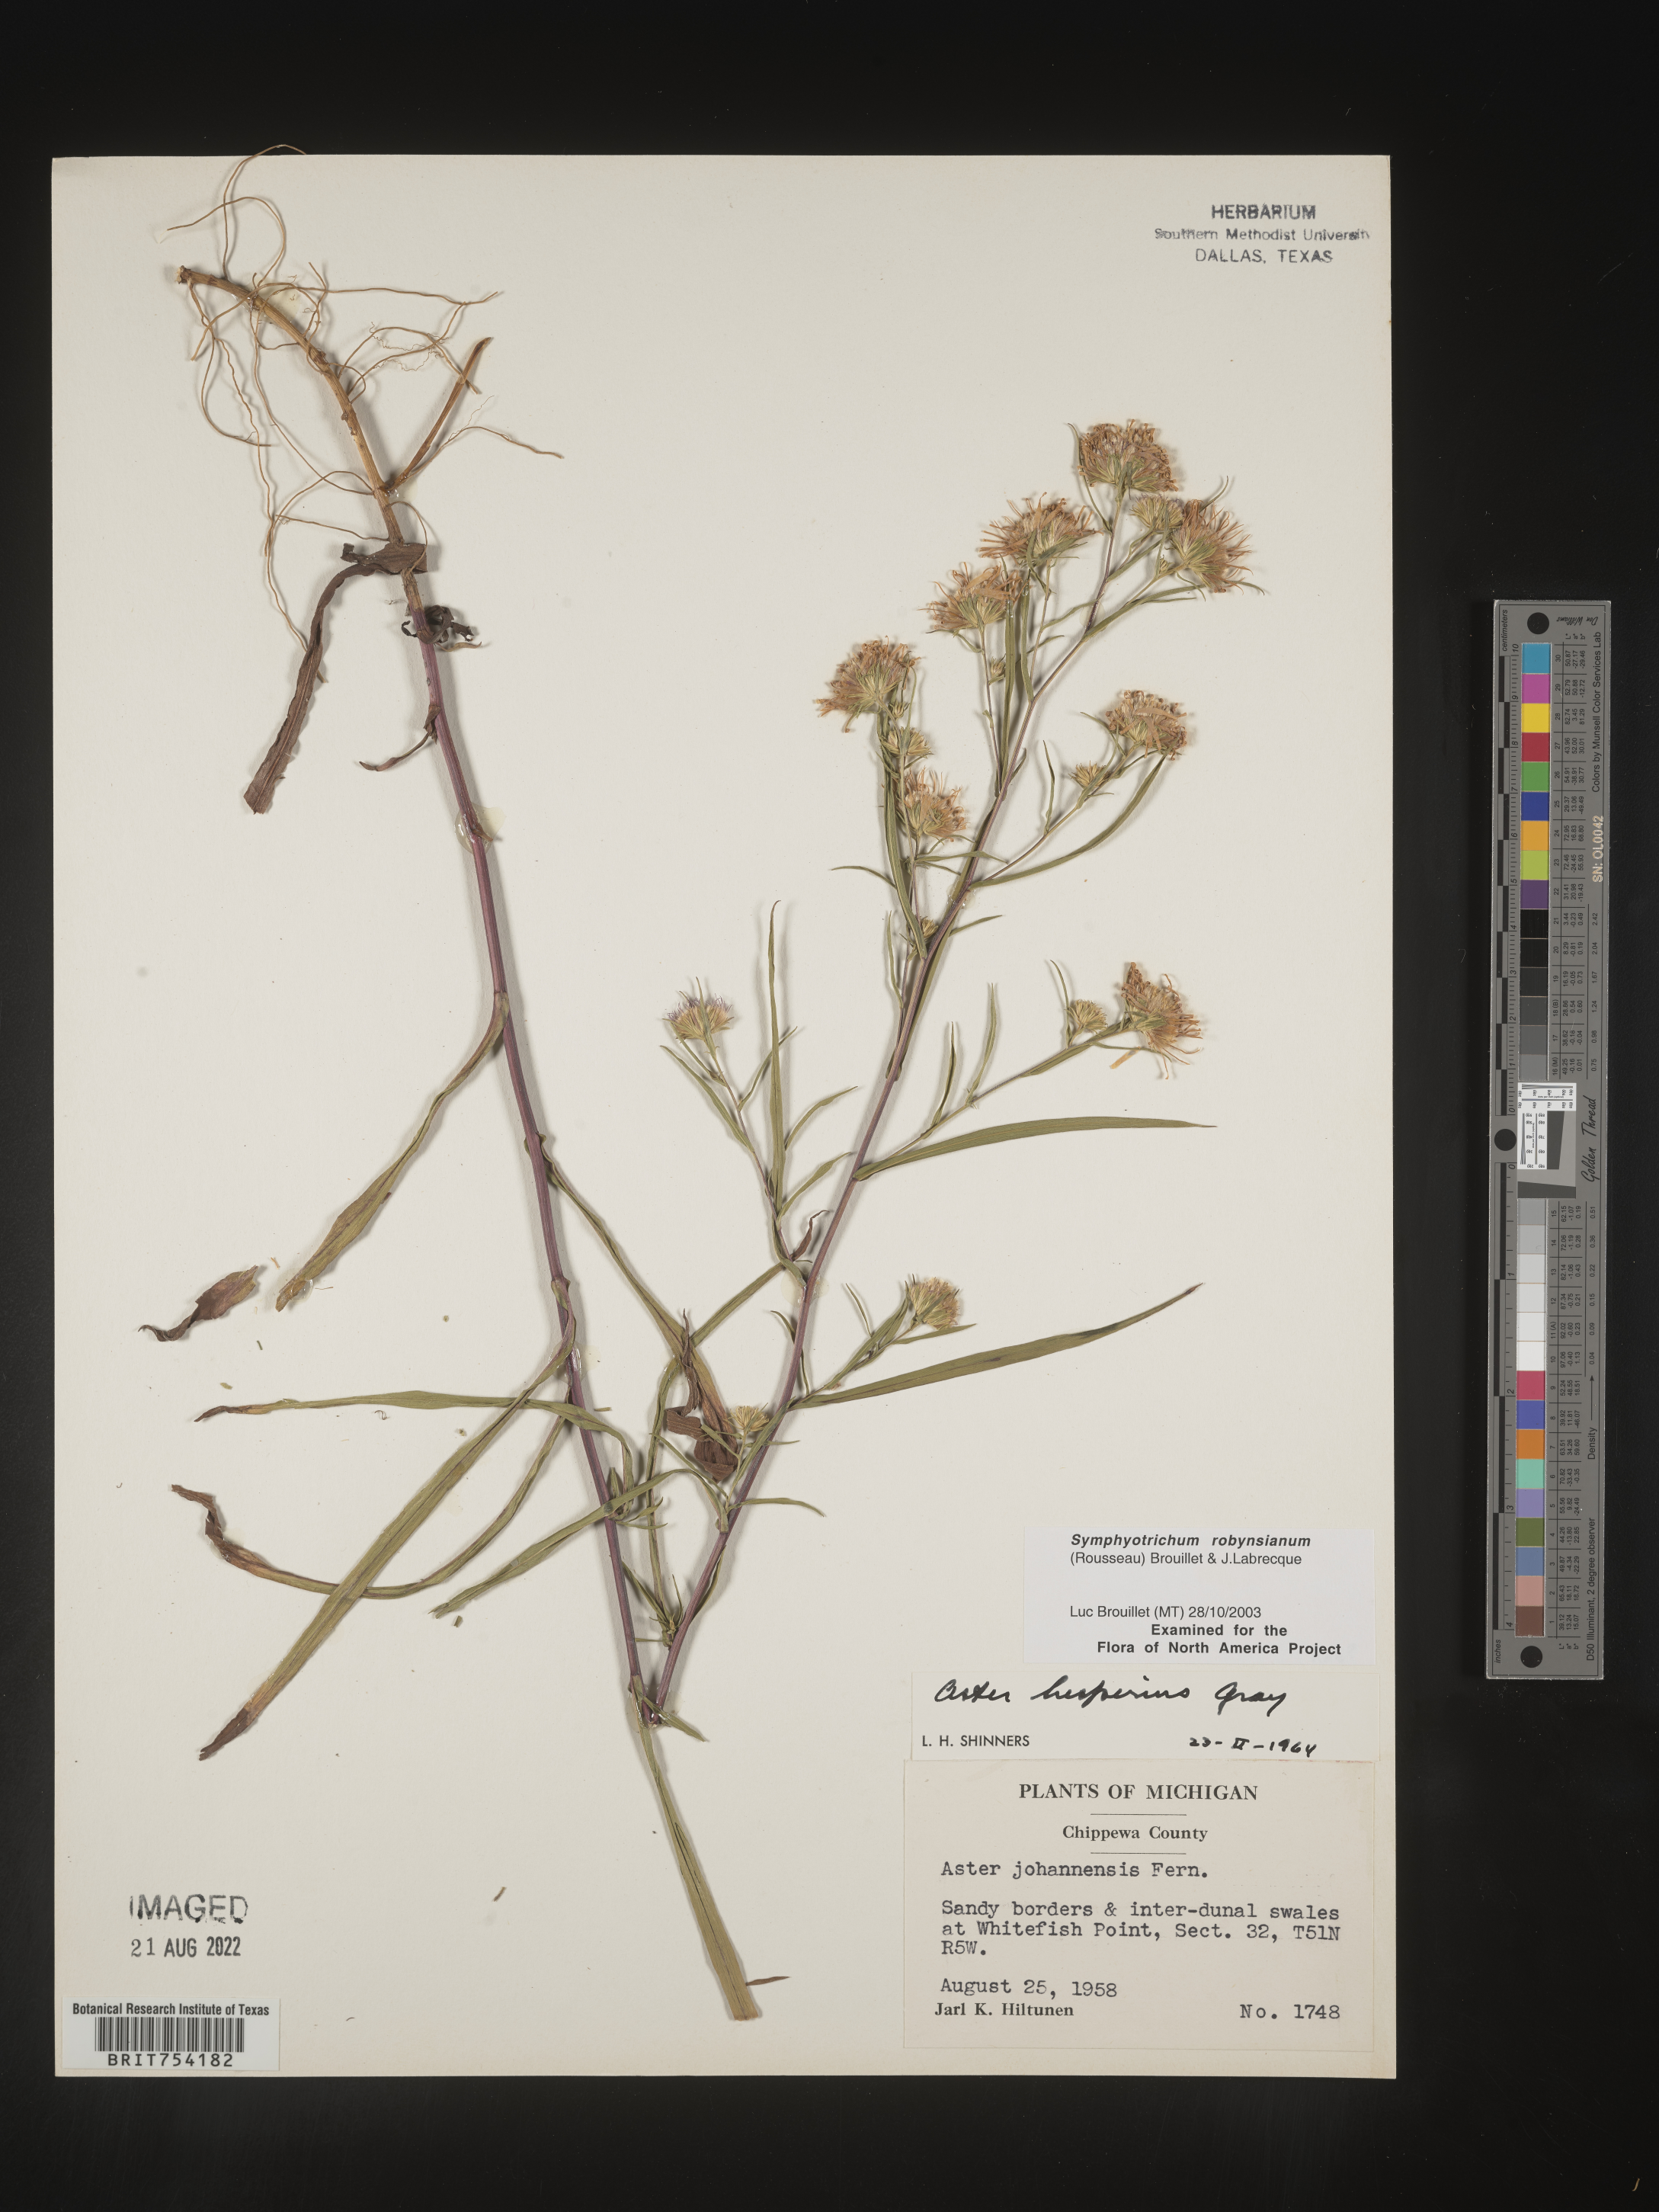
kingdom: Plantae
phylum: Tracheophyta
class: Magnoliopsida
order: Asterales
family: Asteraceae
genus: Symphyotrichum
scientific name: Symphyotrichum robynsianum
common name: Robyns' aster
